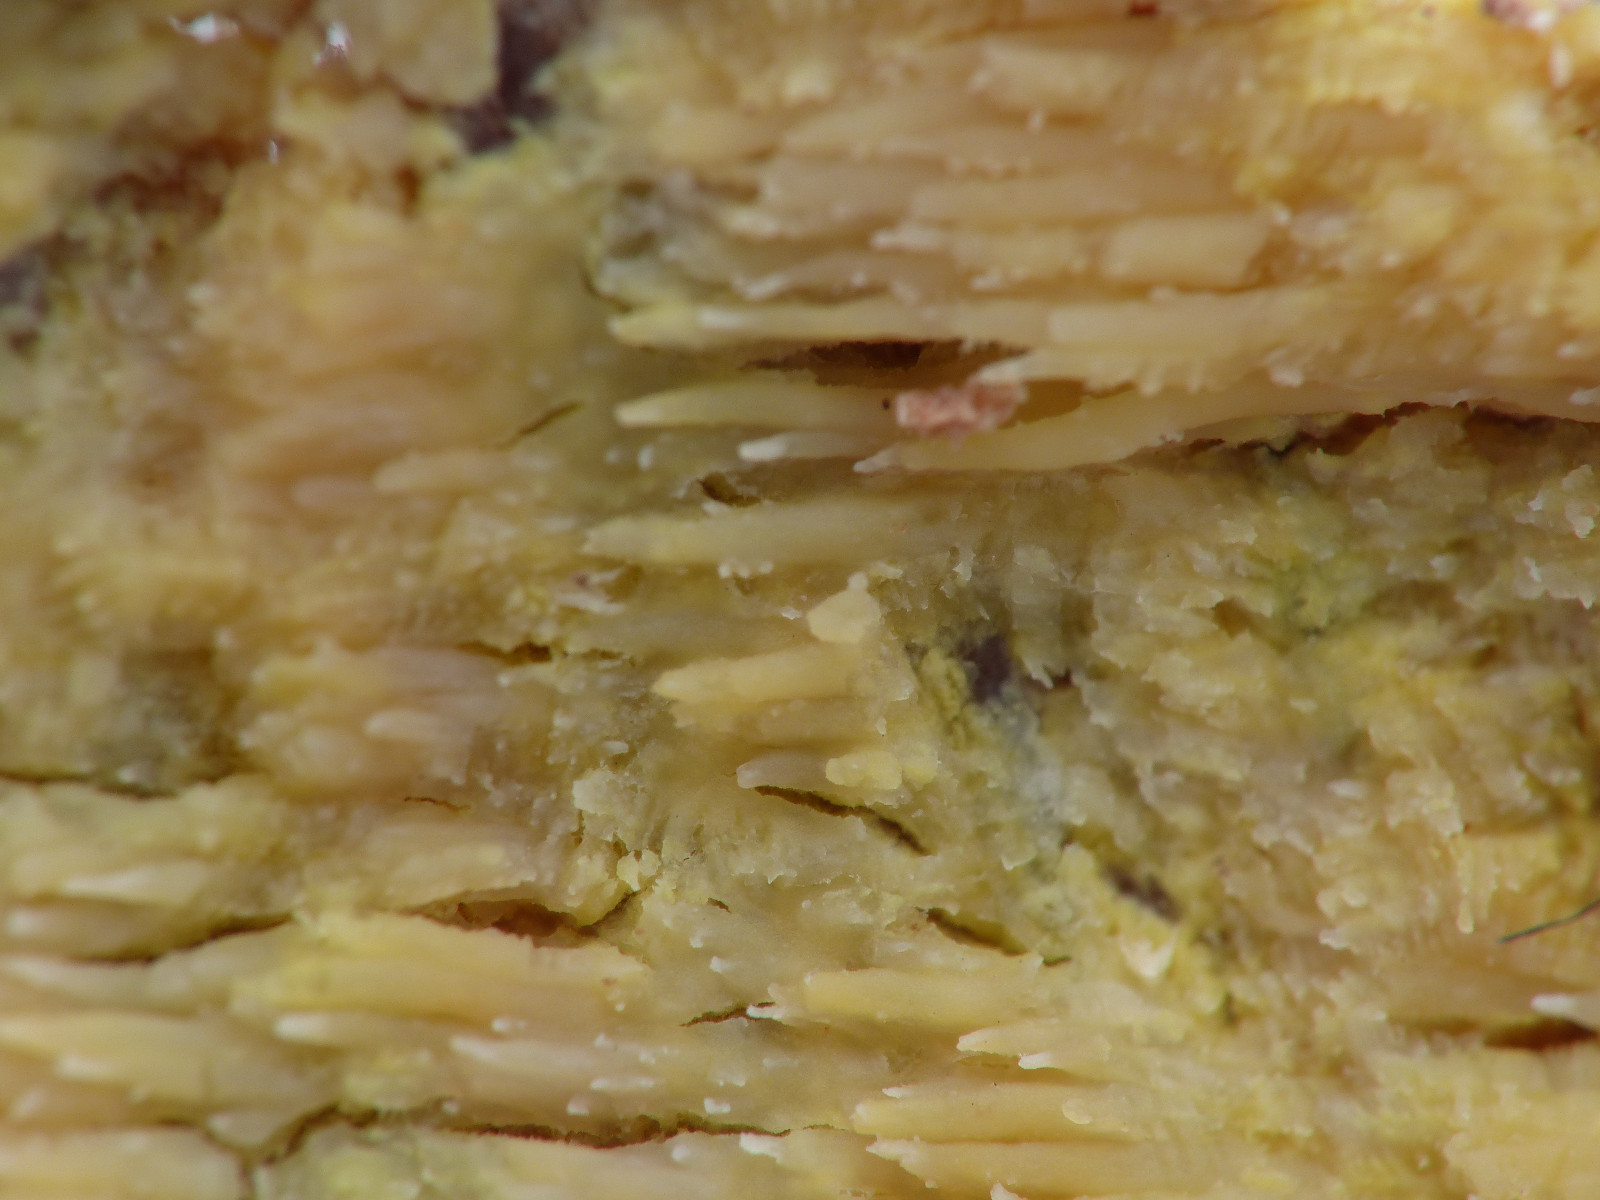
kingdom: Fungi
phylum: Basidiomycota
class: Agaricomycetes
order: Polyporales
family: Meruliaceae
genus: Mycoacia
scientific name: Mycoacia uda
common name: citrongul vokspig
